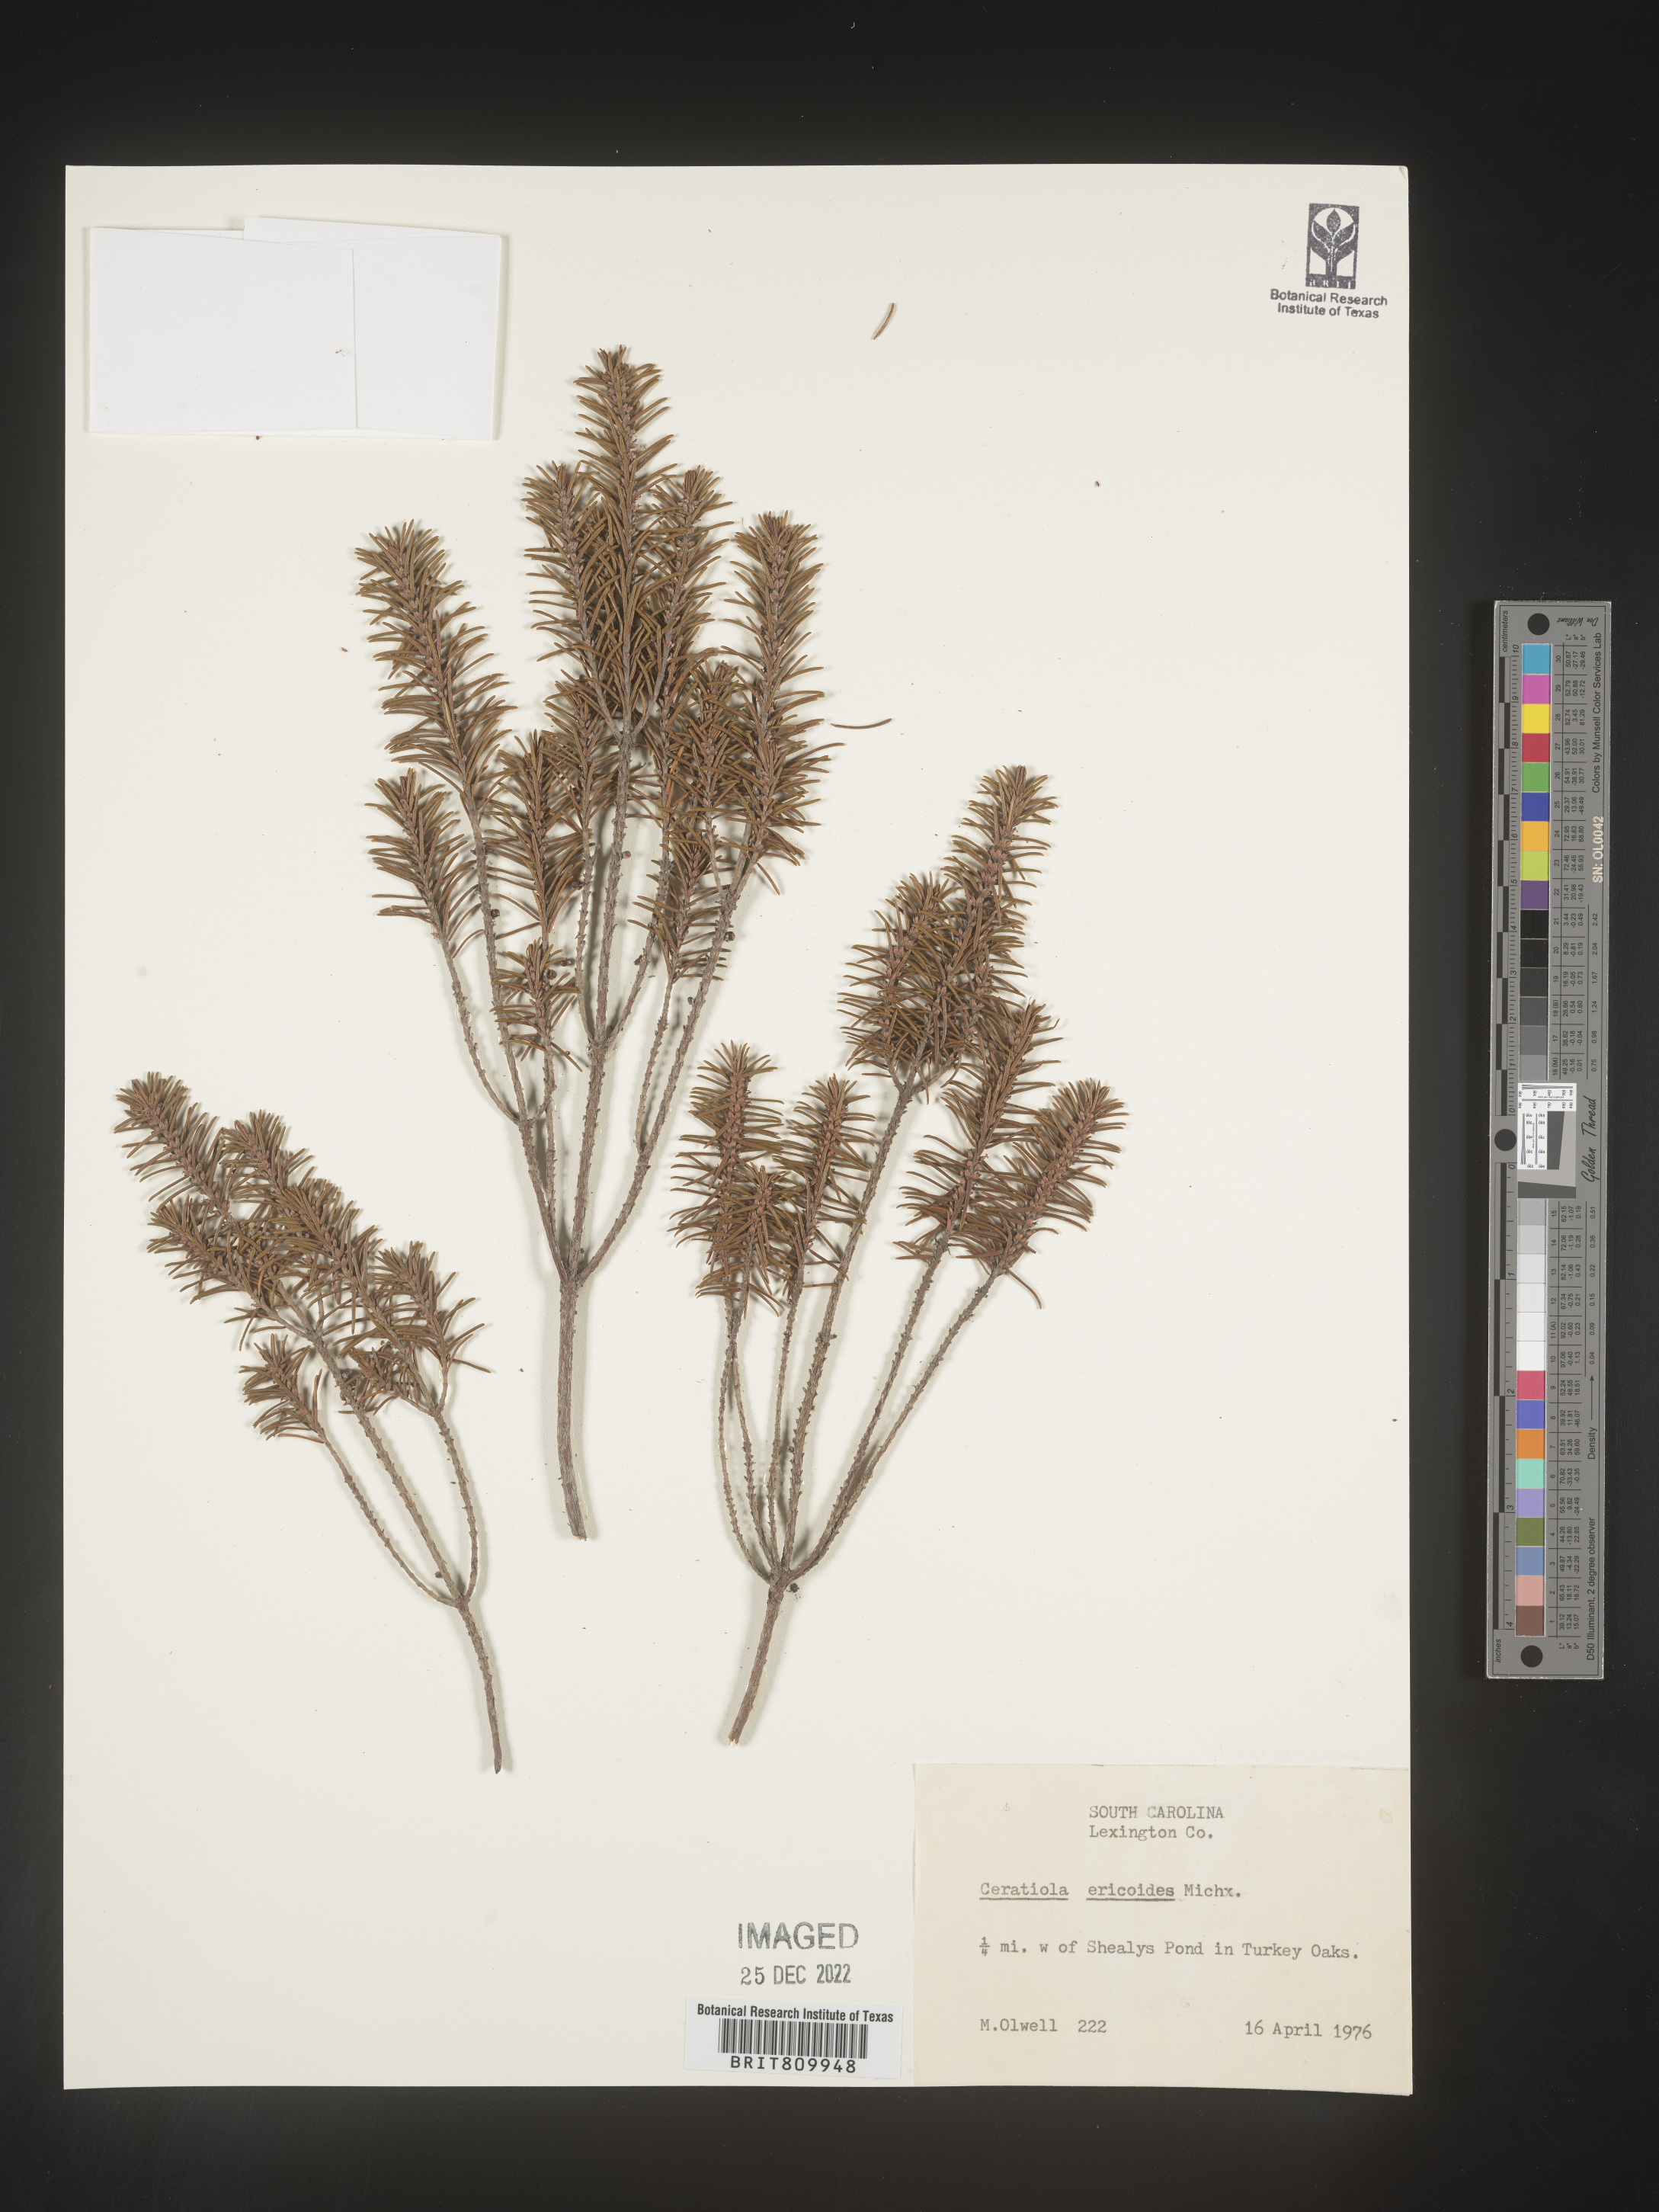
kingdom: Plantae
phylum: Tracheophyta
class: Magnoliopsida
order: Ericales
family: Ericaceae
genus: Ceratiola
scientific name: Ceratiola ericoides
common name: Sandhill-rosemary
